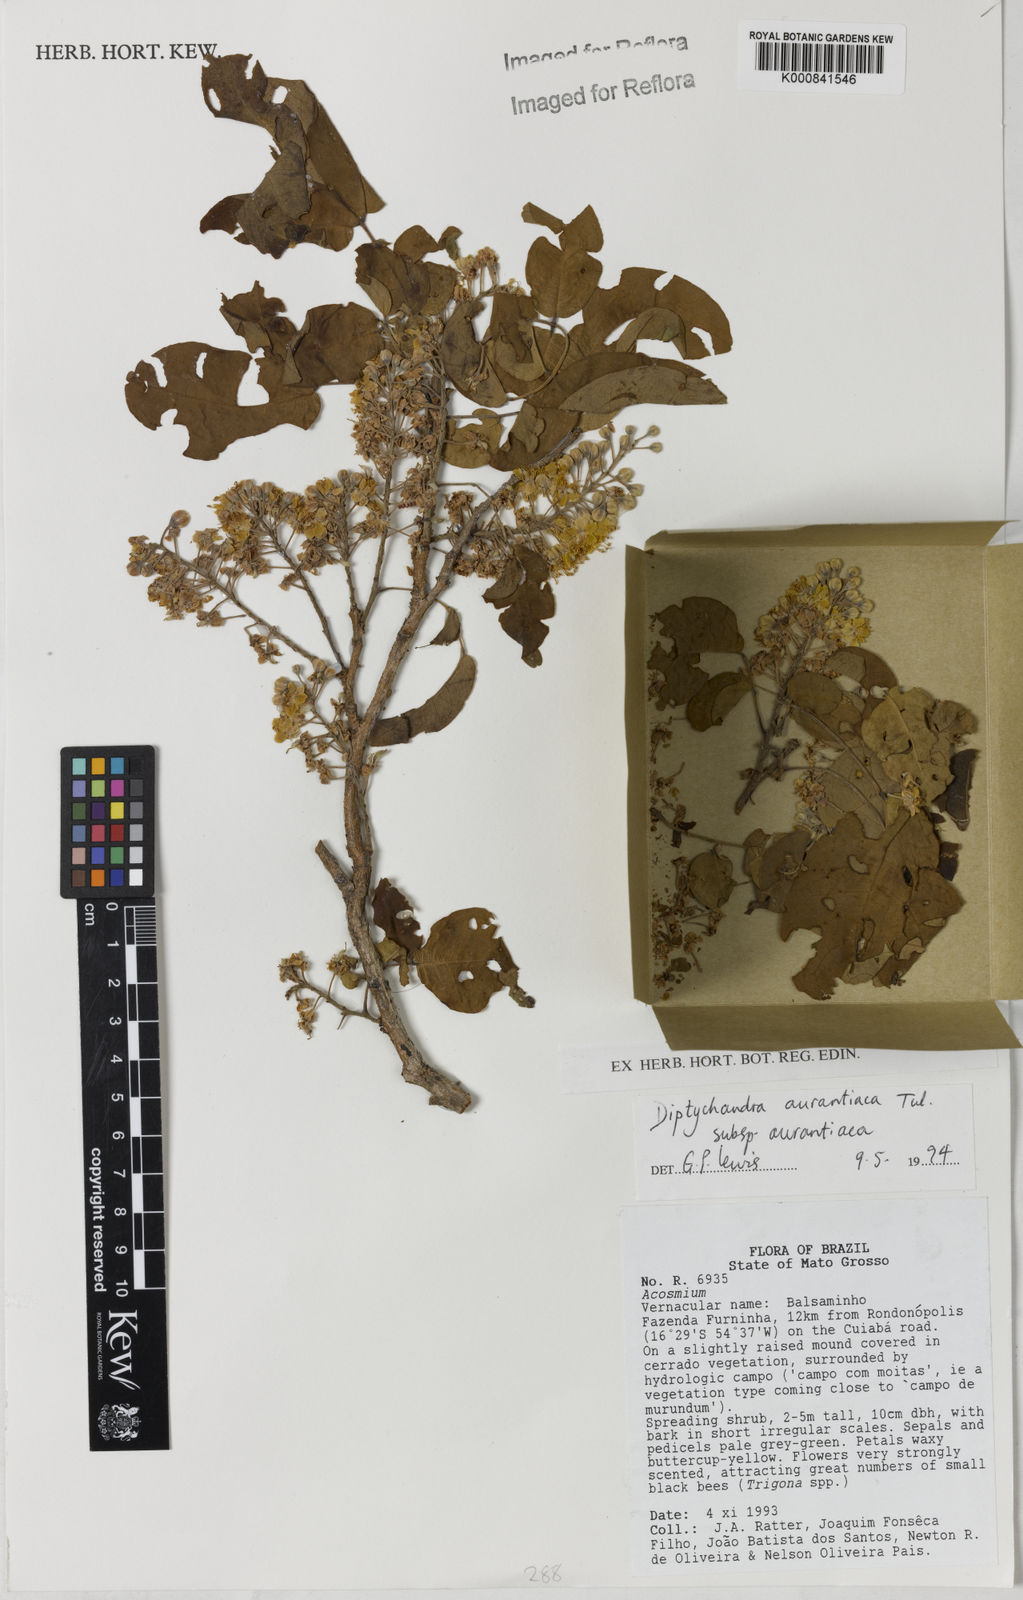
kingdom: Plantae
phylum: Tracheophyta
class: Magnoliopsida
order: Fabales
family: Fabaceae
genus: Diptychandra
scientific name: Diptychandra aurantiaca
